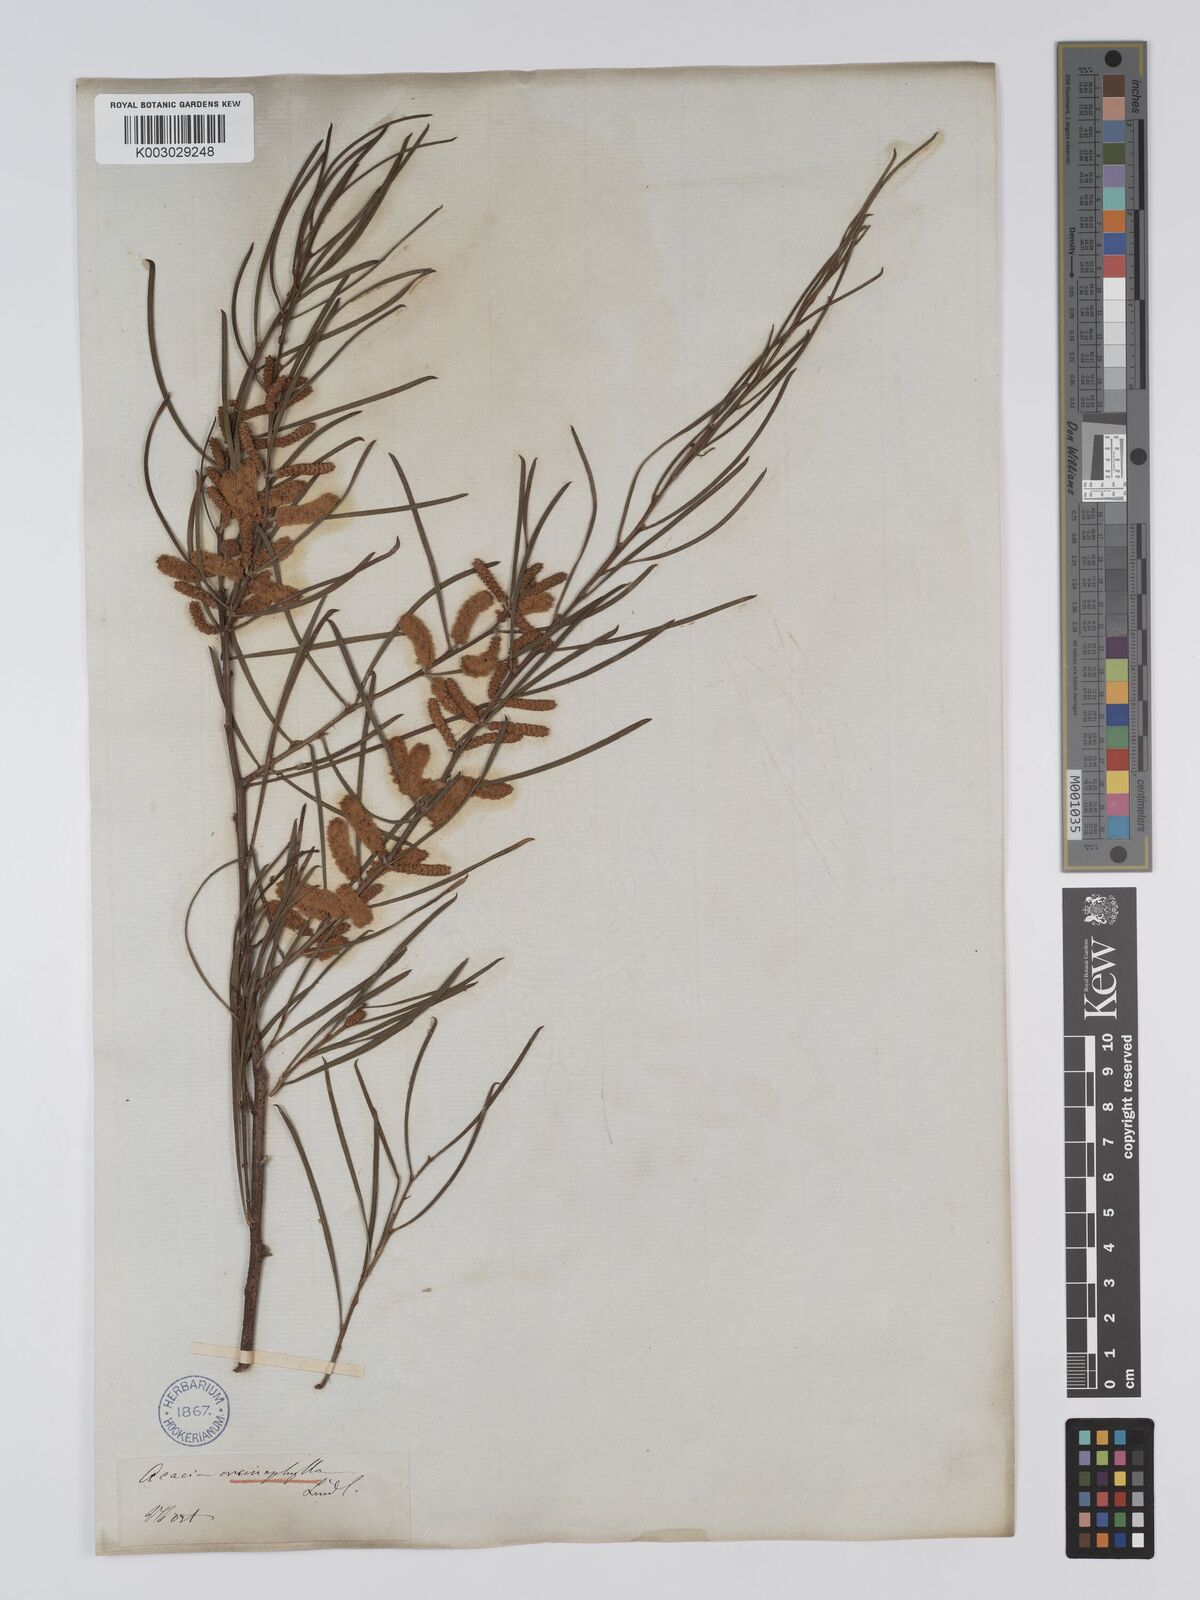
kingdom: Plantae
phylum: Tracheophyta
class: Magnoliopsida
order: Fabales
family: Fabaceae
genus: Acacia
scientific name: Acacia oncinophylla
